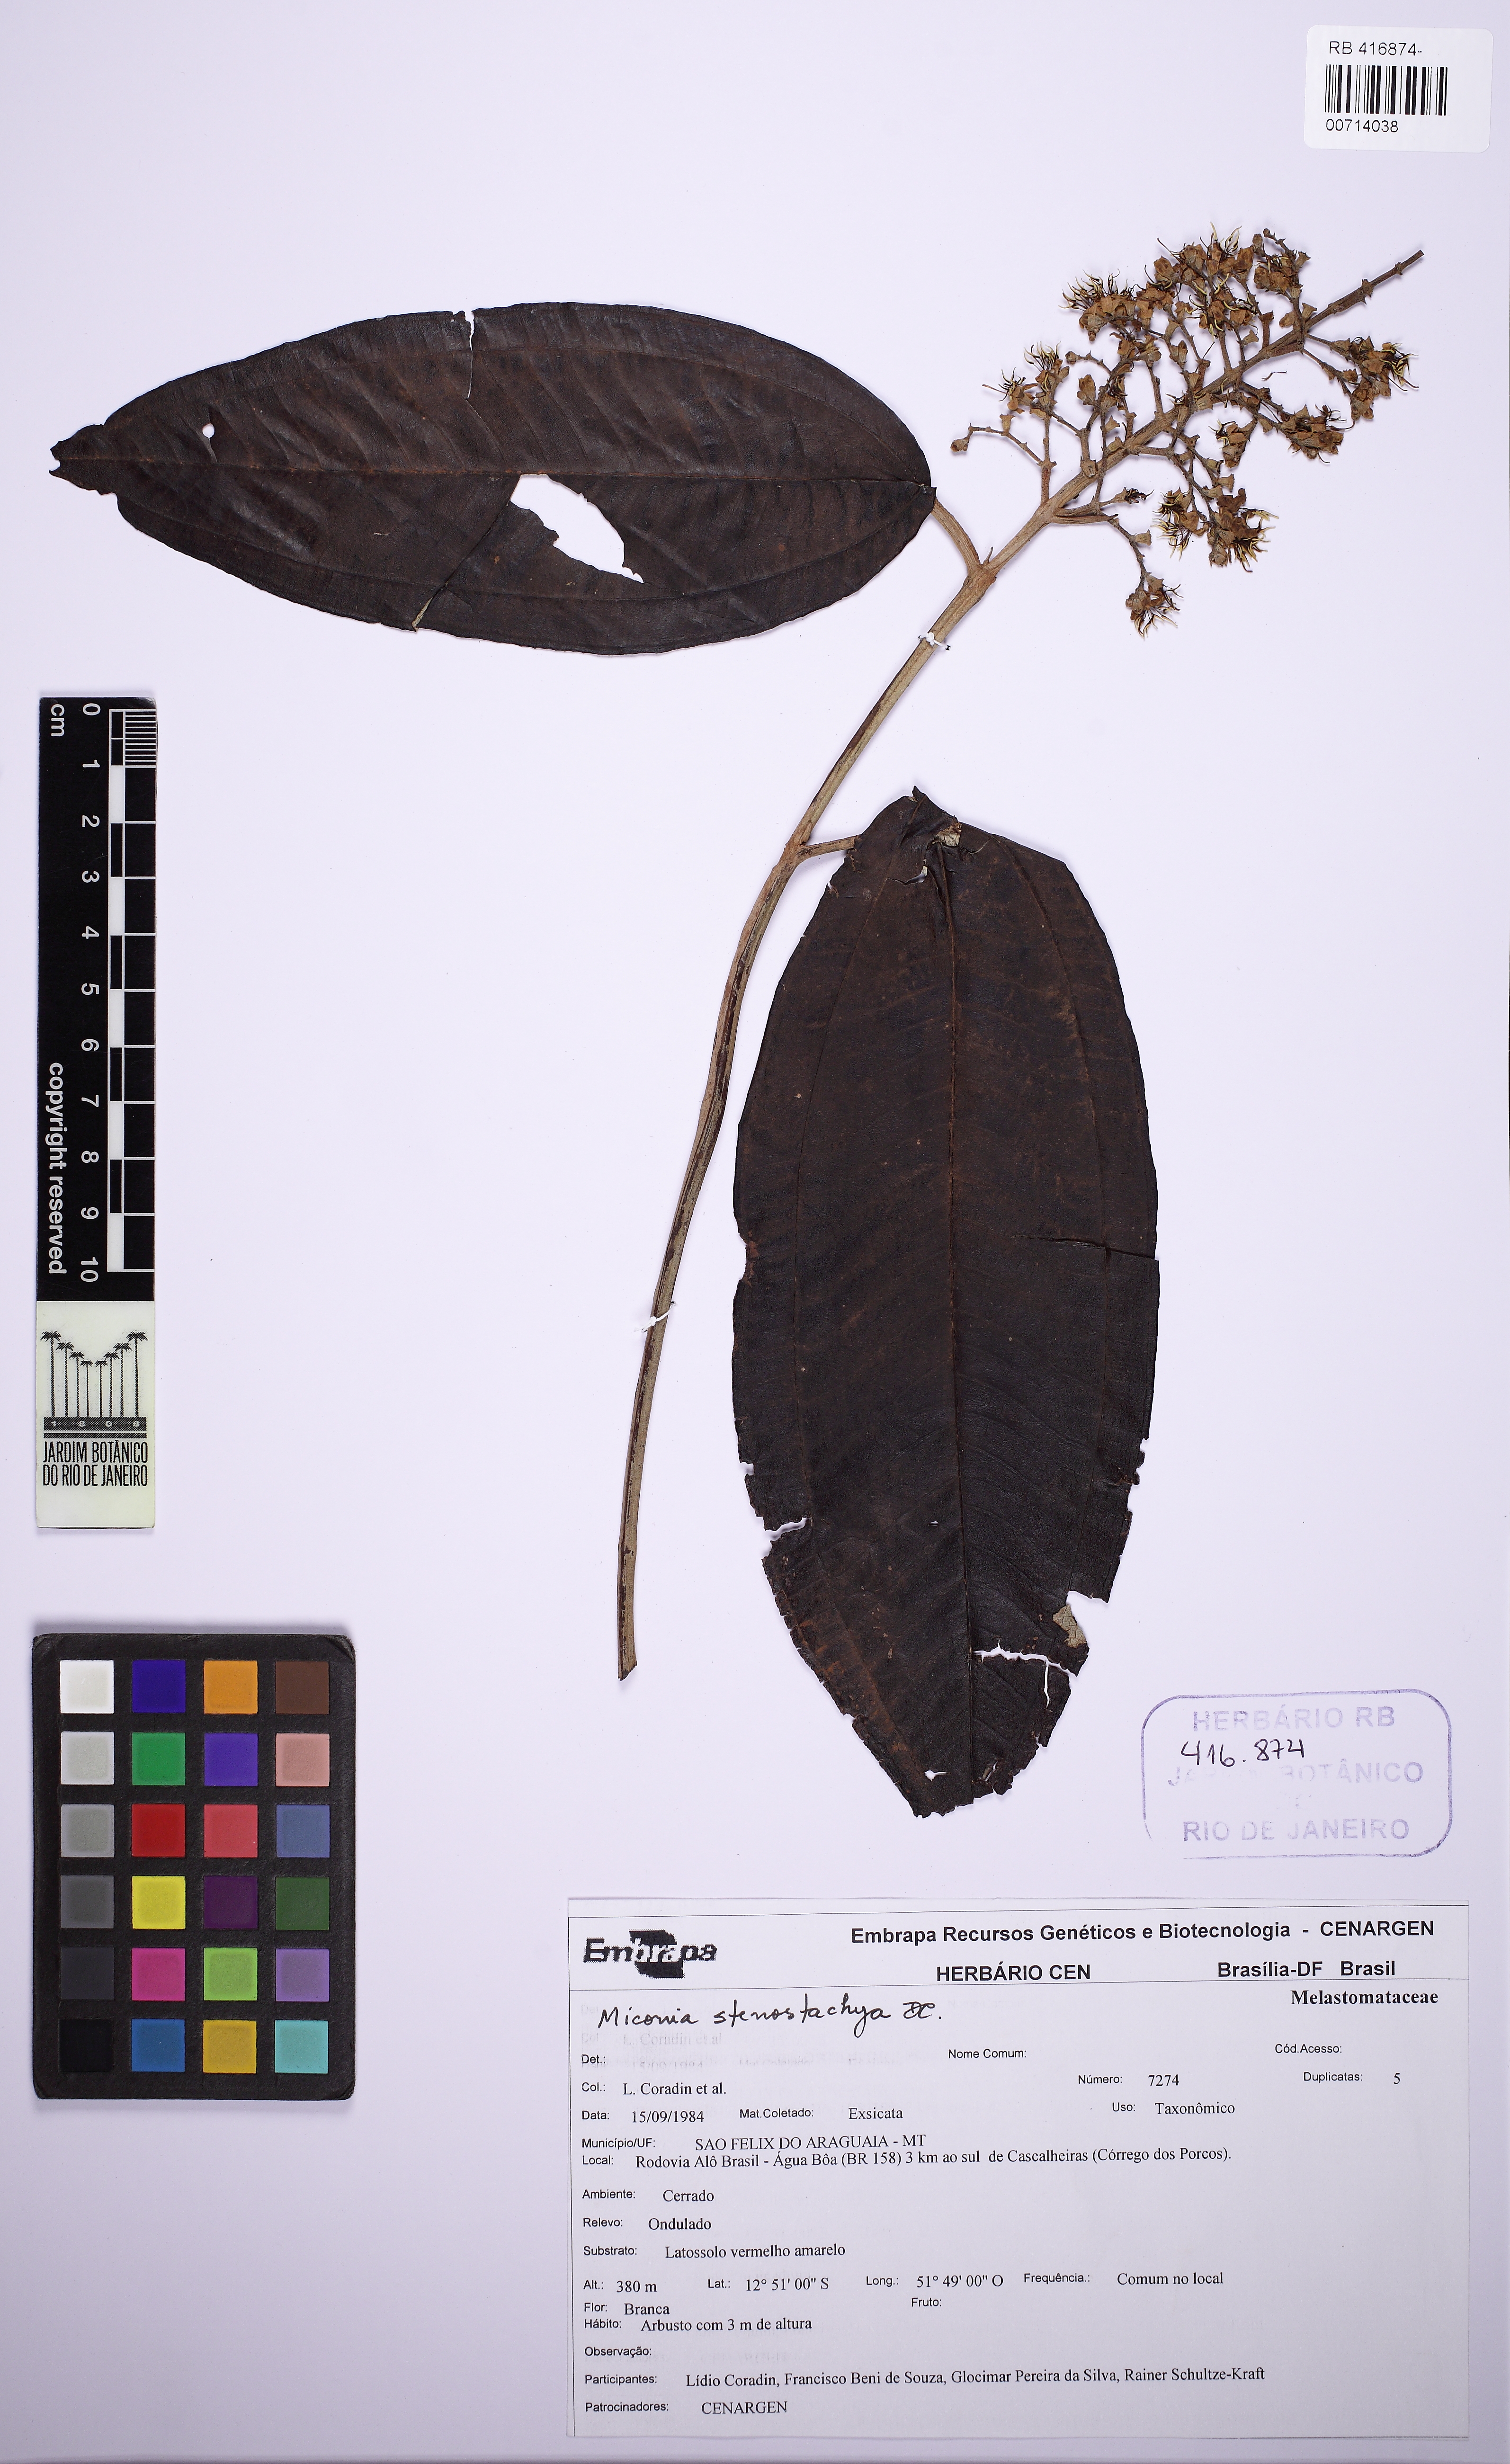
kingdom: Plantae
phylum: Tracheophyta
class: Magnoliopsida
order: Myrtales
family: Melastomataceae
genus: Miconia
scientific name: Miconia stenostachya
